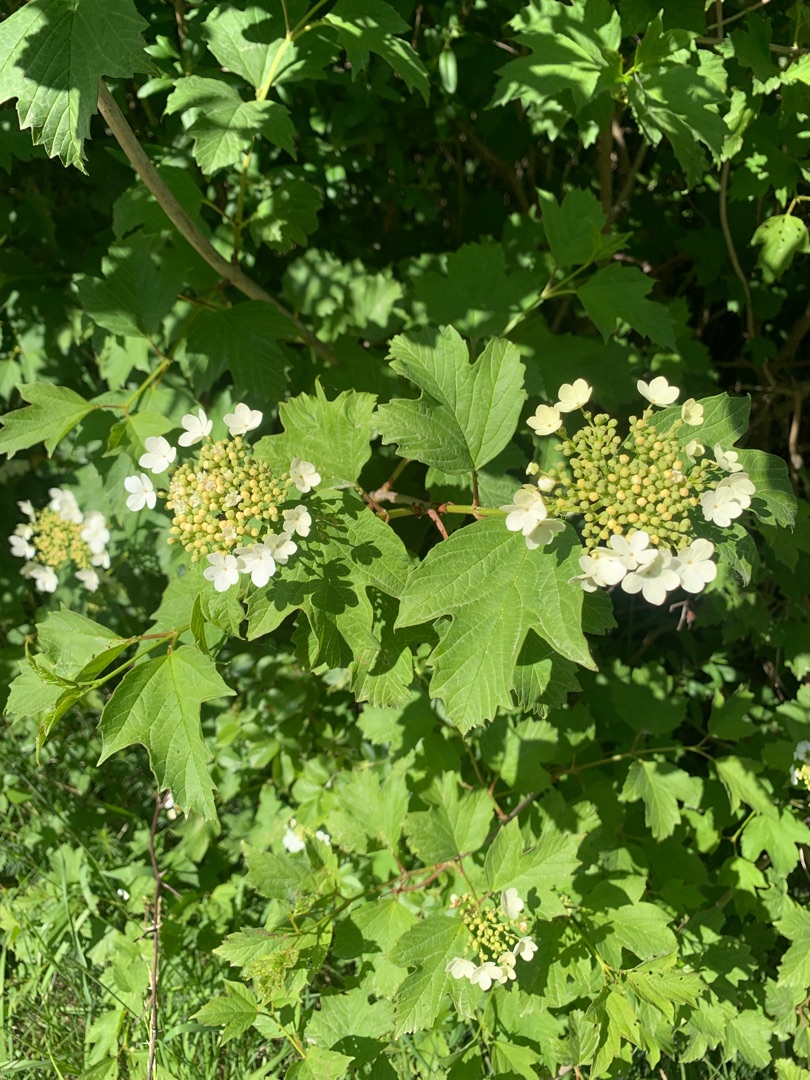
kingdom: Plantae
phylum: Tracheophyta
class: Magnoliopsida
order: Dipsacales
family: Viburnaceae
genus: Viburnum
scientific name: Viburnum opulus
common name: Kvalkved
